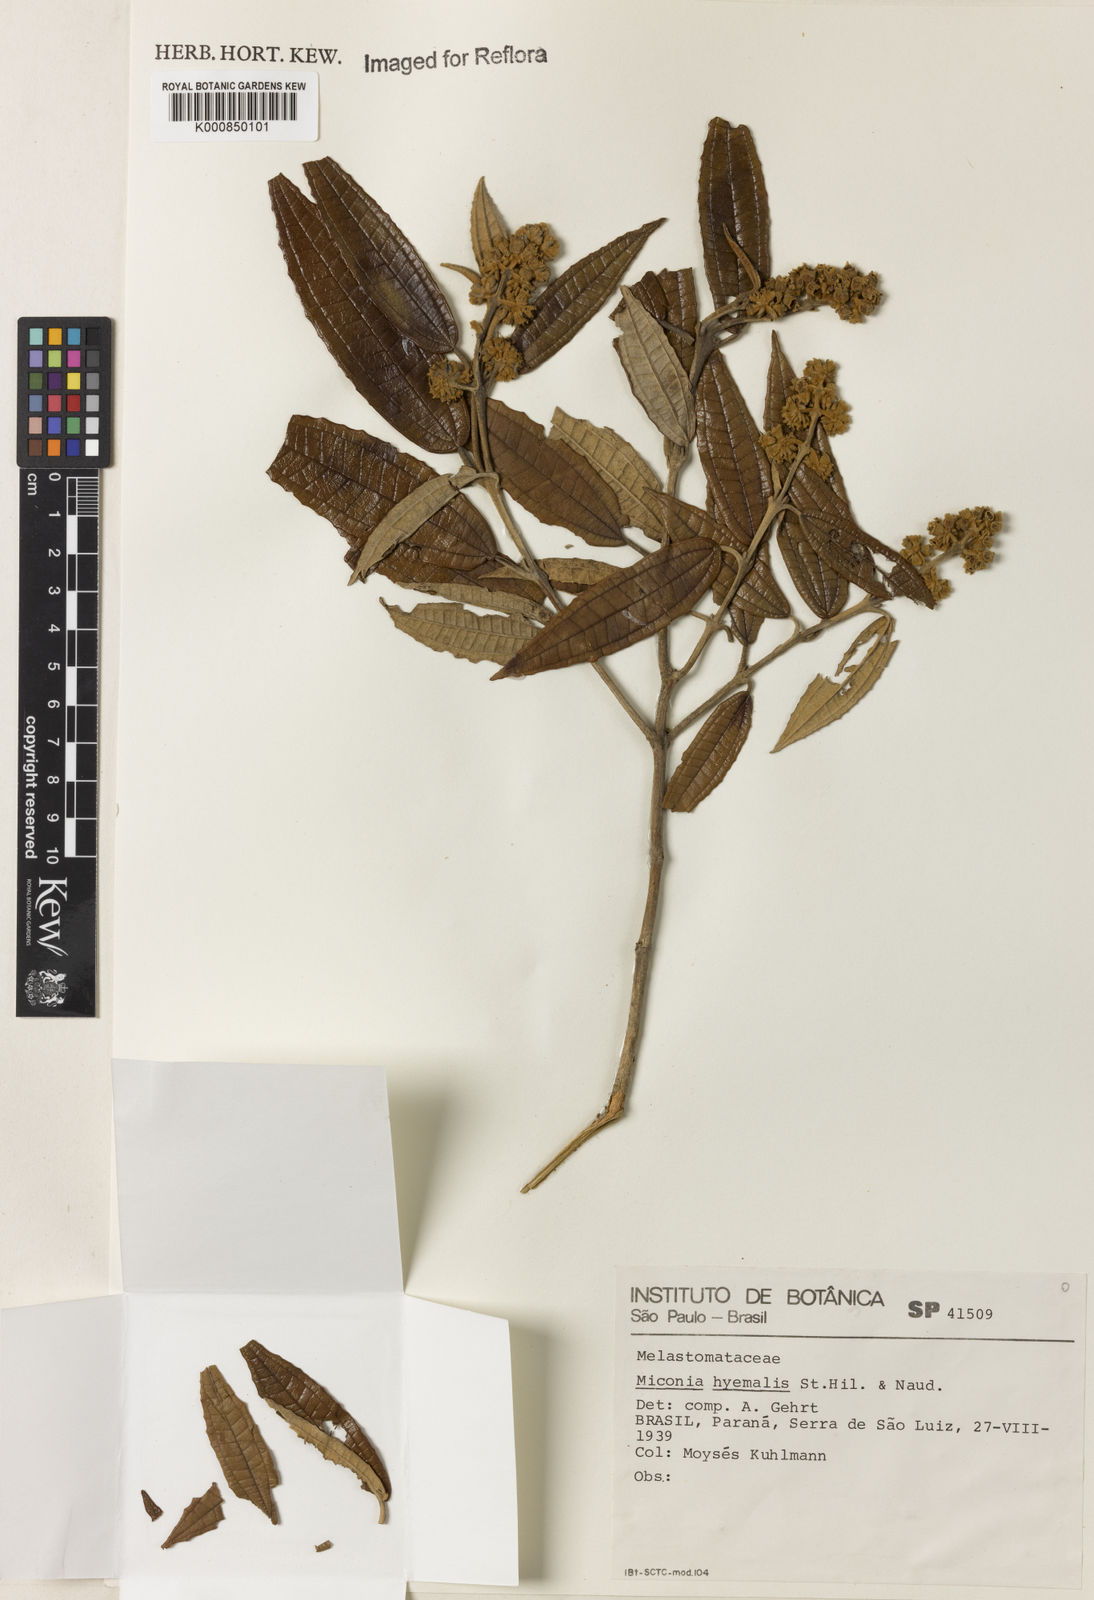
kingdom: Plantae
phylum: Tracheophyta
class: Magnoliopsida
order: Myrtales
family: Melastomataceae
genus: Miconia
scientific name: Miconia hyemalis
